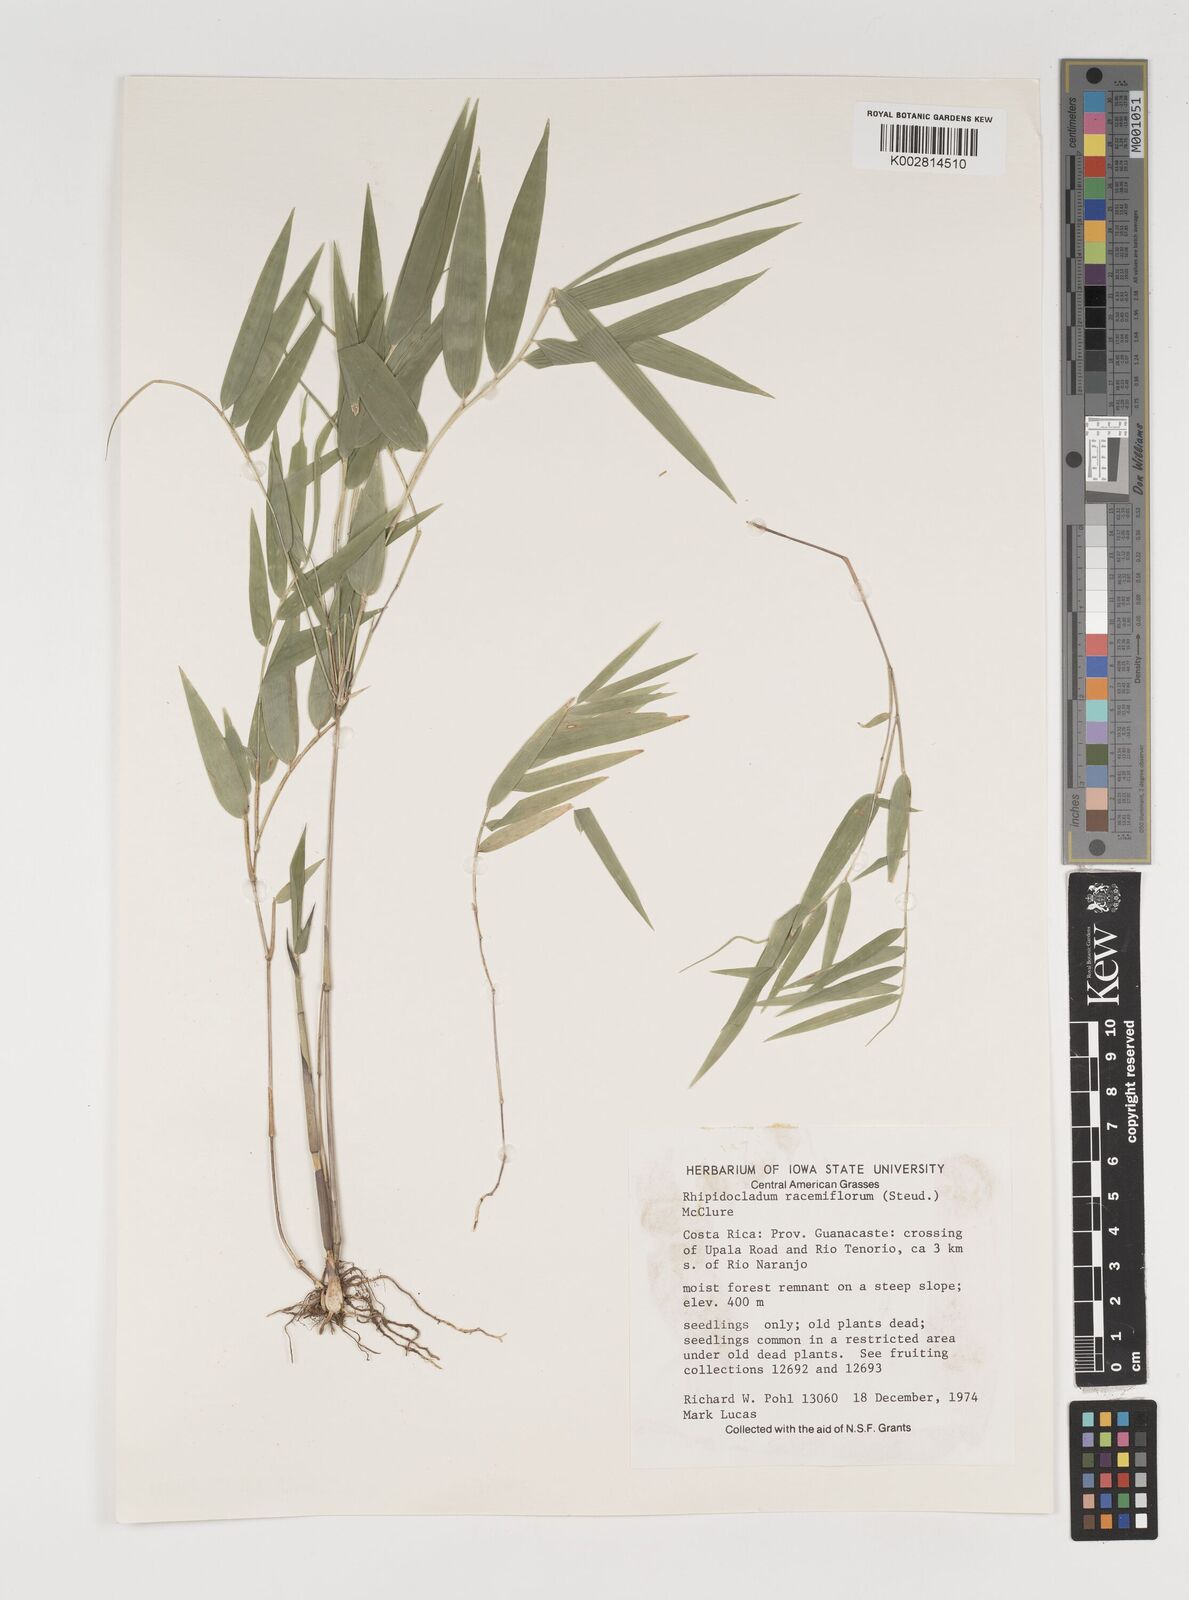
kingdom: Plantae
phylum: Tracheophyta
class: Liliopsida
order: Poales
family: Poaceae
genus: Rhipidocladum
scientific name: Rhipidocladum racemiflorum
